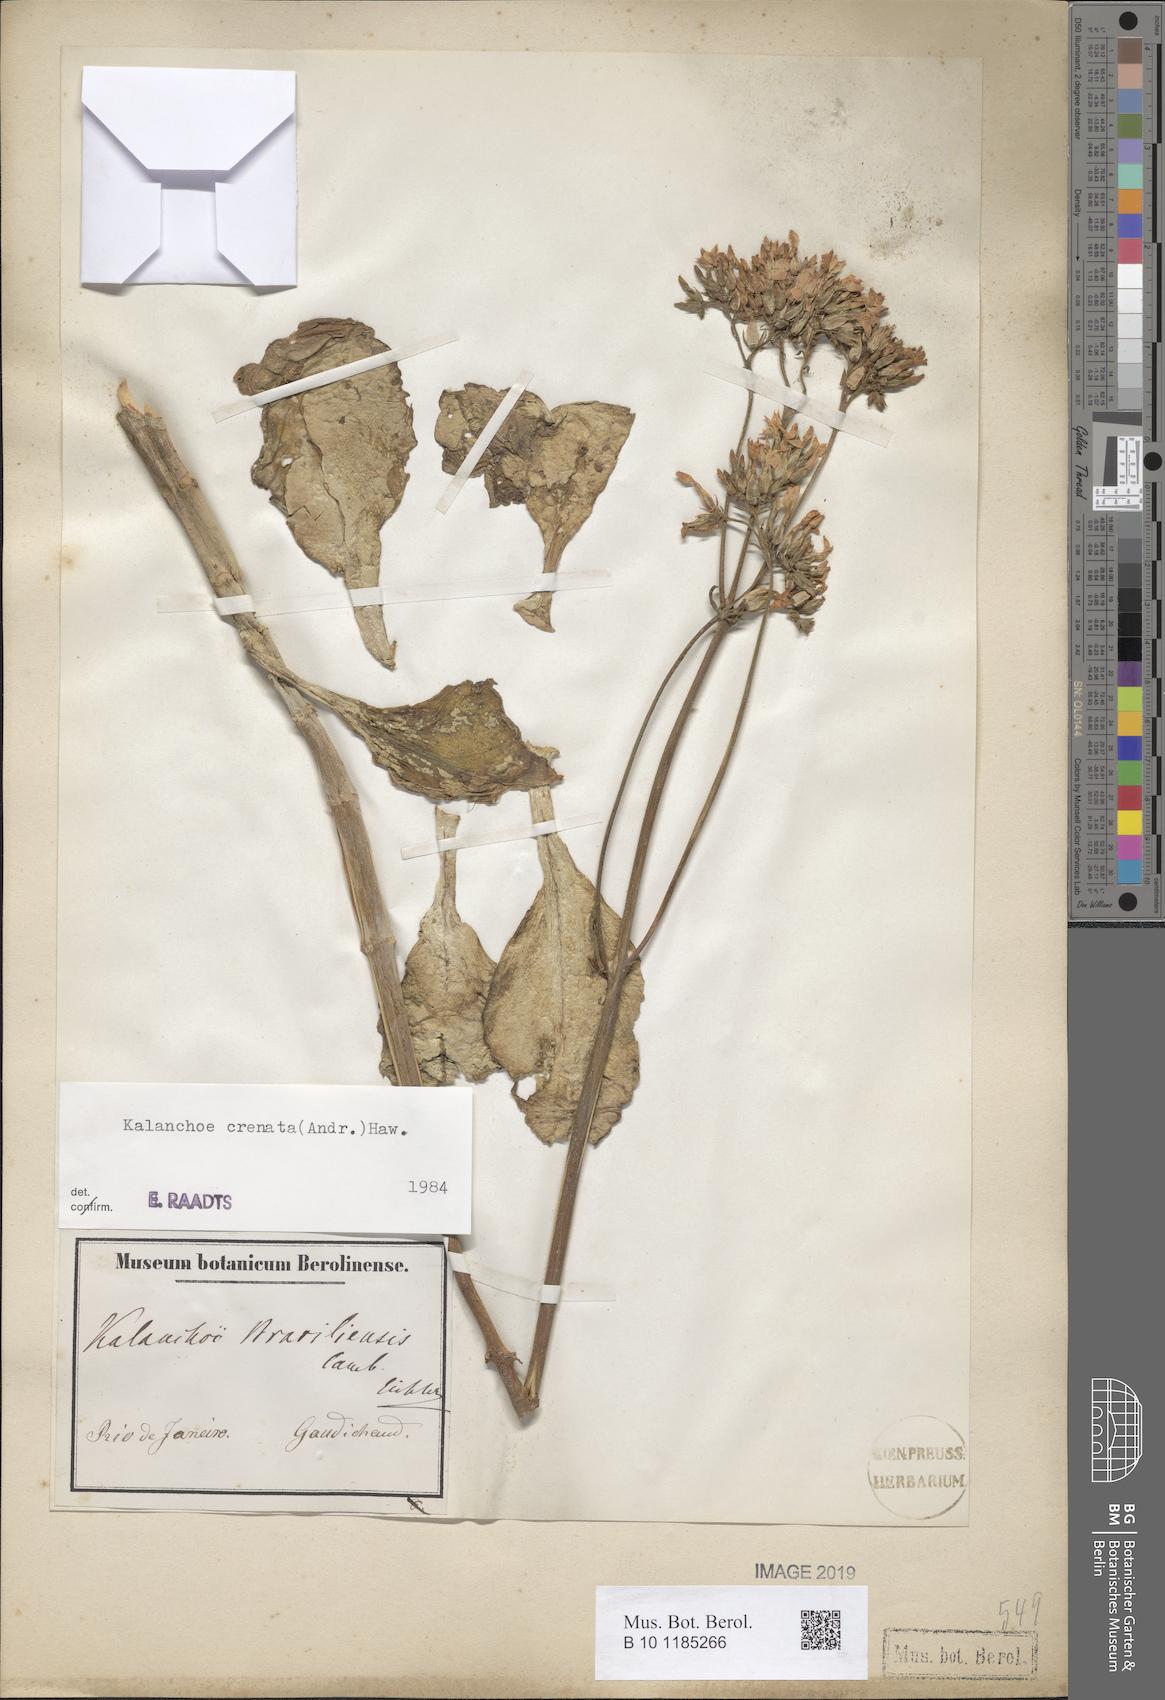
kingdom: Plantae
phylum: Tracheophyta
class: Magnoliopsida
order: Saxifragales
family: Crassulaceae
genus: Kalanchoe
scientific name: Kalanchoe crenata
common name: Neverdie
